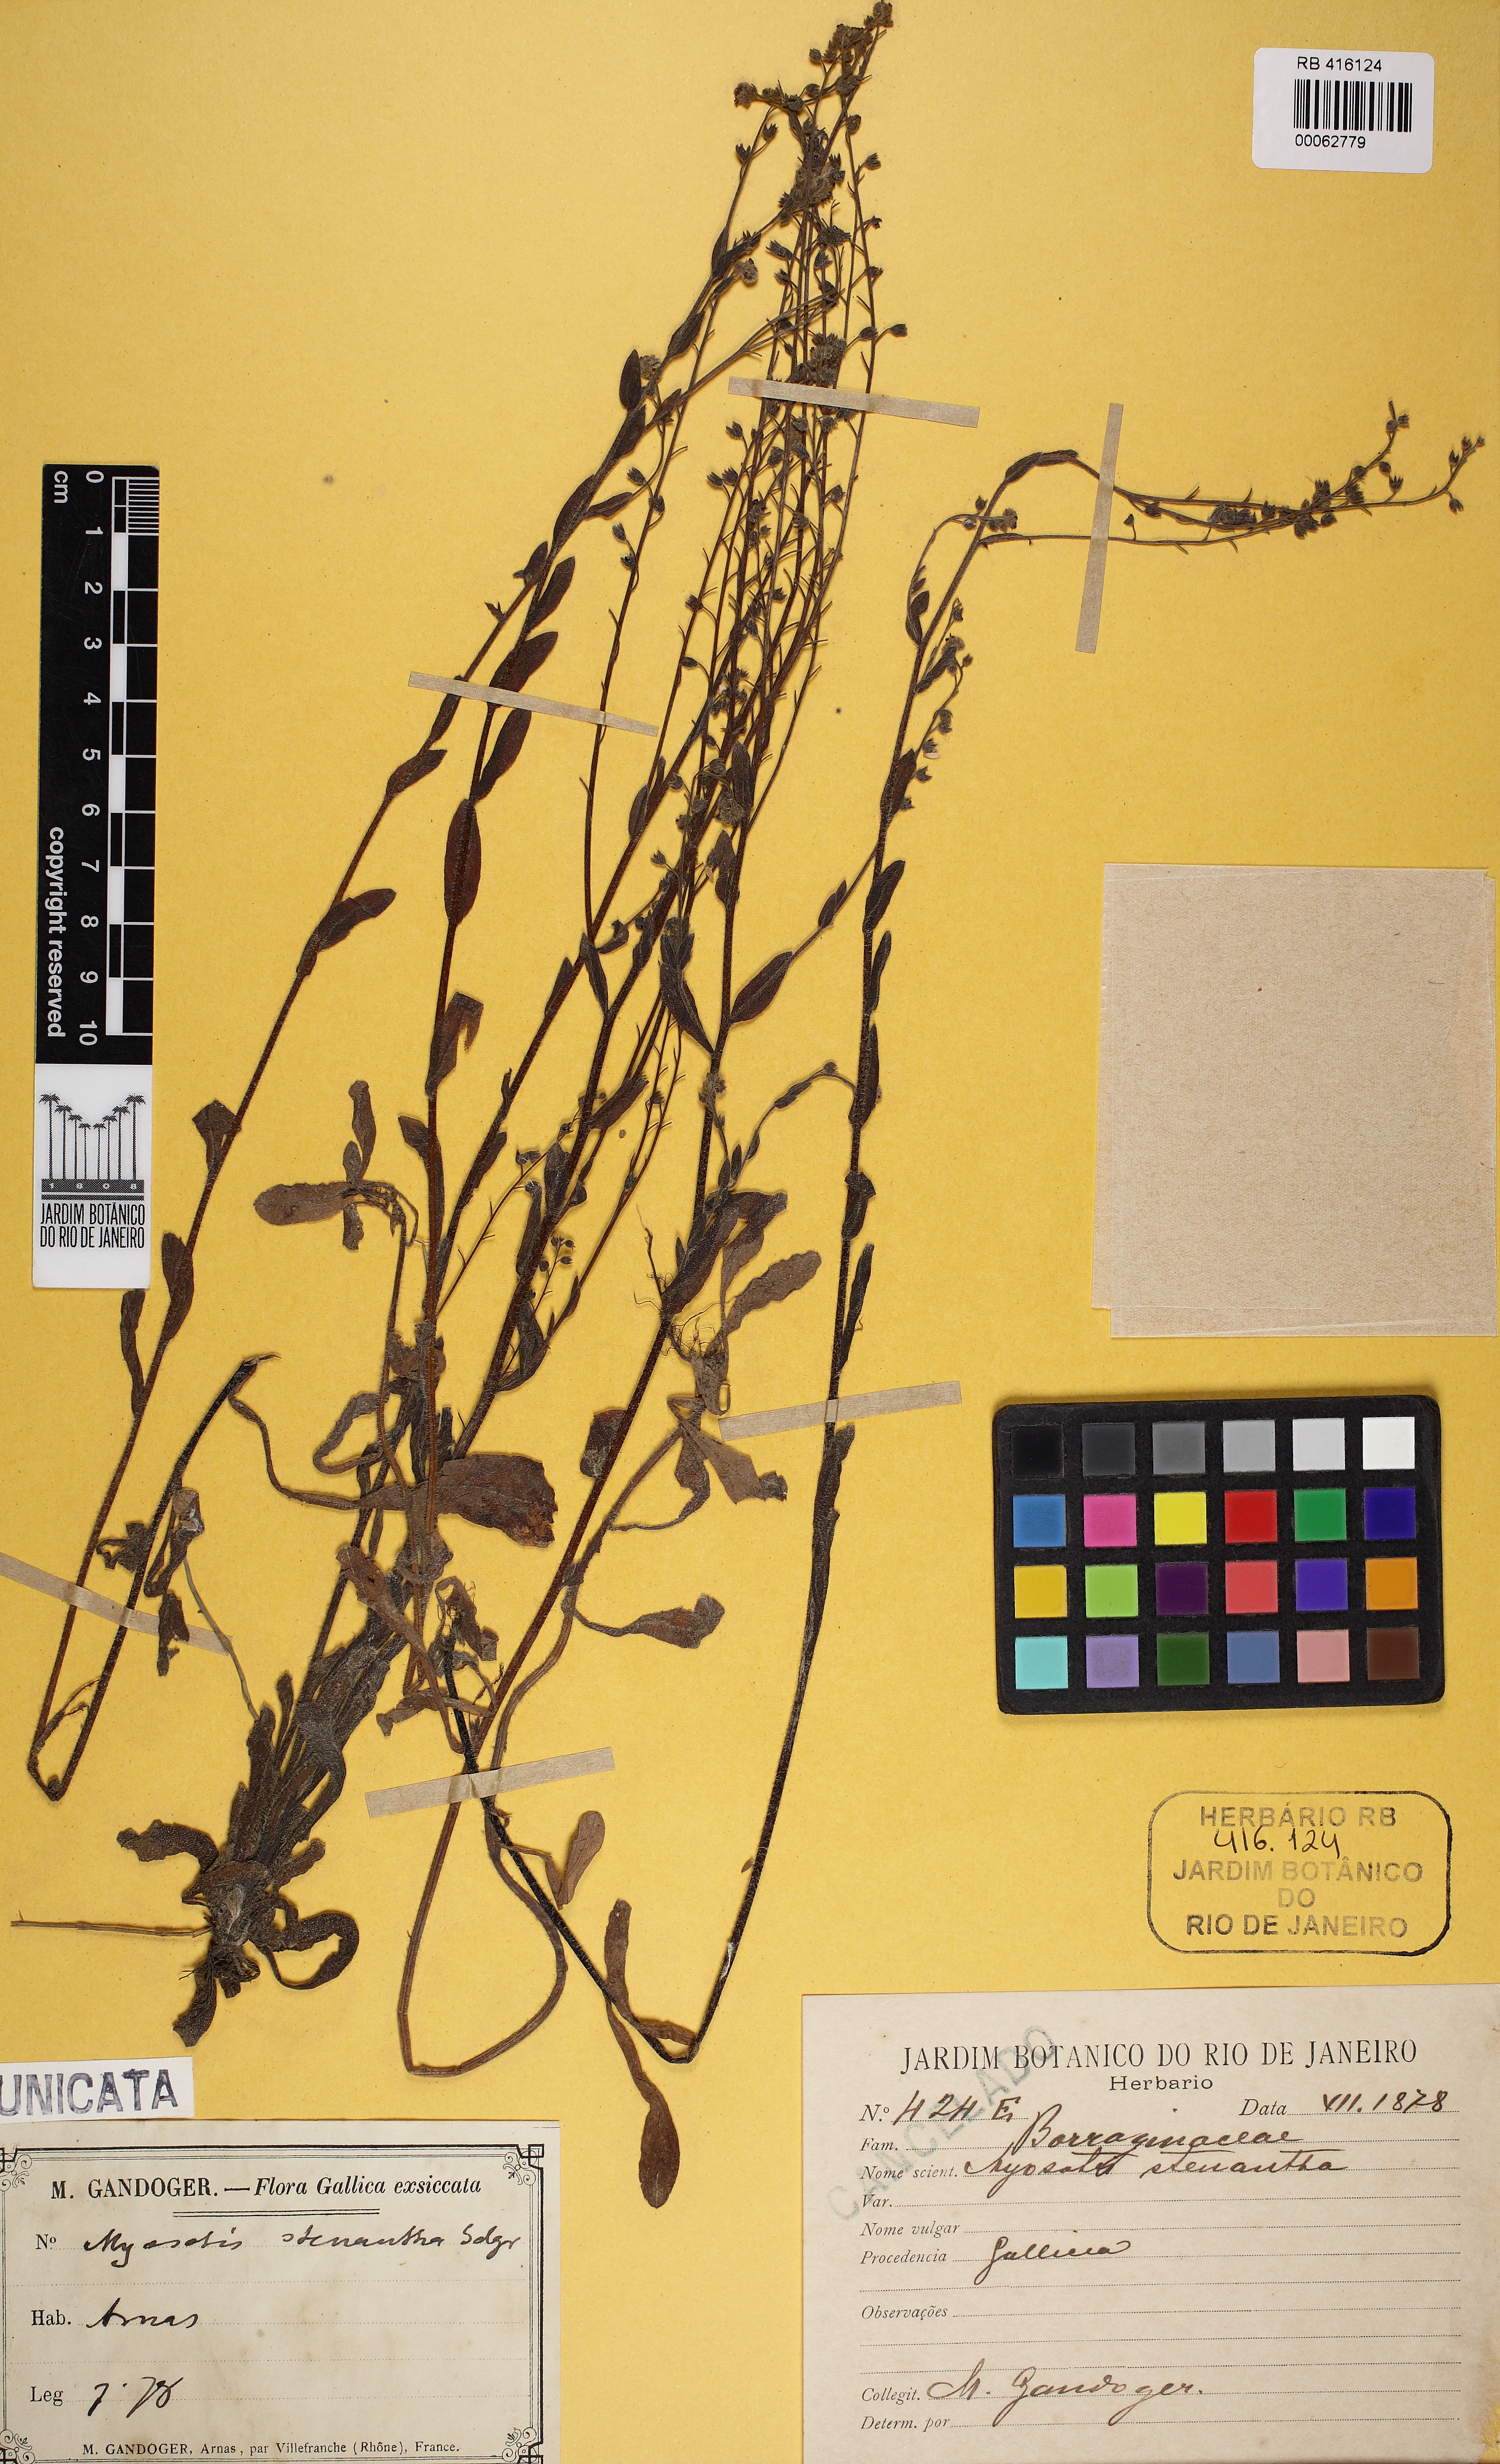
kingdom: Plantae
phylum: Tracheophyta
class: Magnoliopsida
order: Boraginales
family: Boraginaceae
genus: Myosotis
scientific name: Myosotis
